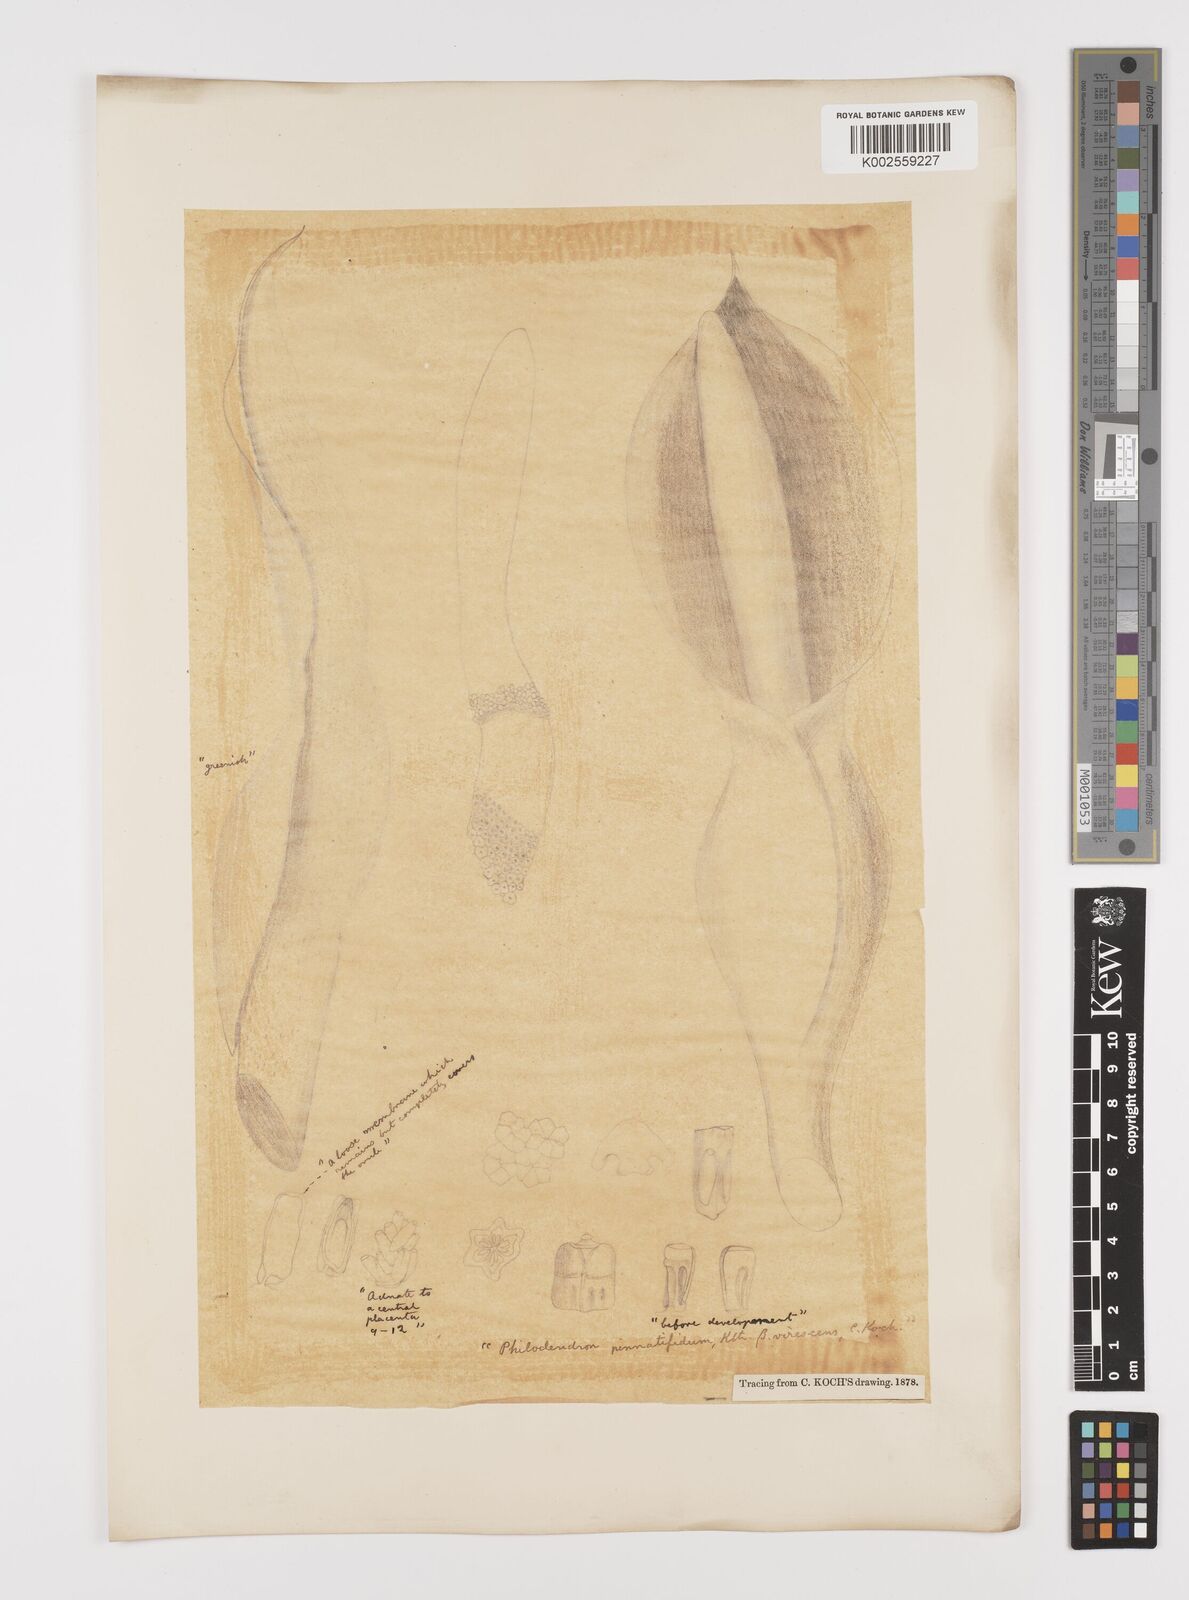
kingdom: Plantae
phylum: Tracheophyta
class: Liliopsida
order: Alismatales
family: Araceae
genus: Philodendron
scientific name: Philodendron pinnatifidum
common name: Comb-leaf philodendron
